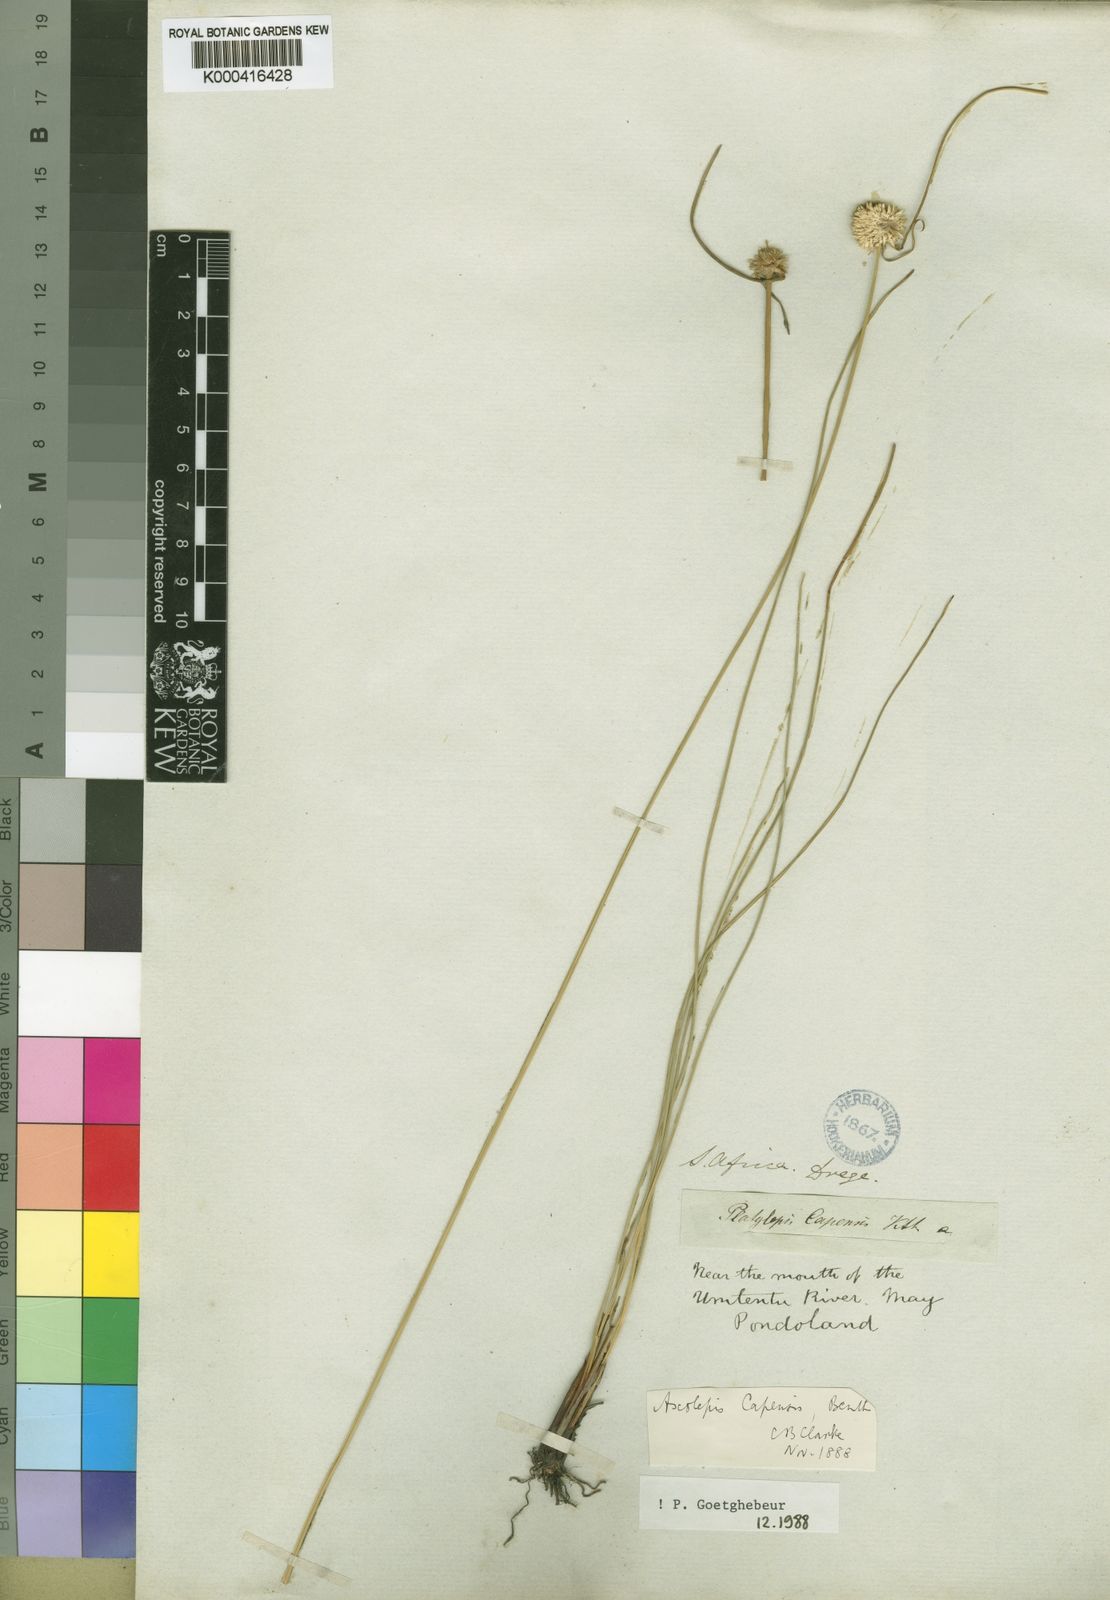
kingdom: Plantae
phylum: Tracheophyta
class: Liliopsida
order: Poales
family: Cyperaceae
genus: Ascolepis
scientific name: Ascolepis
